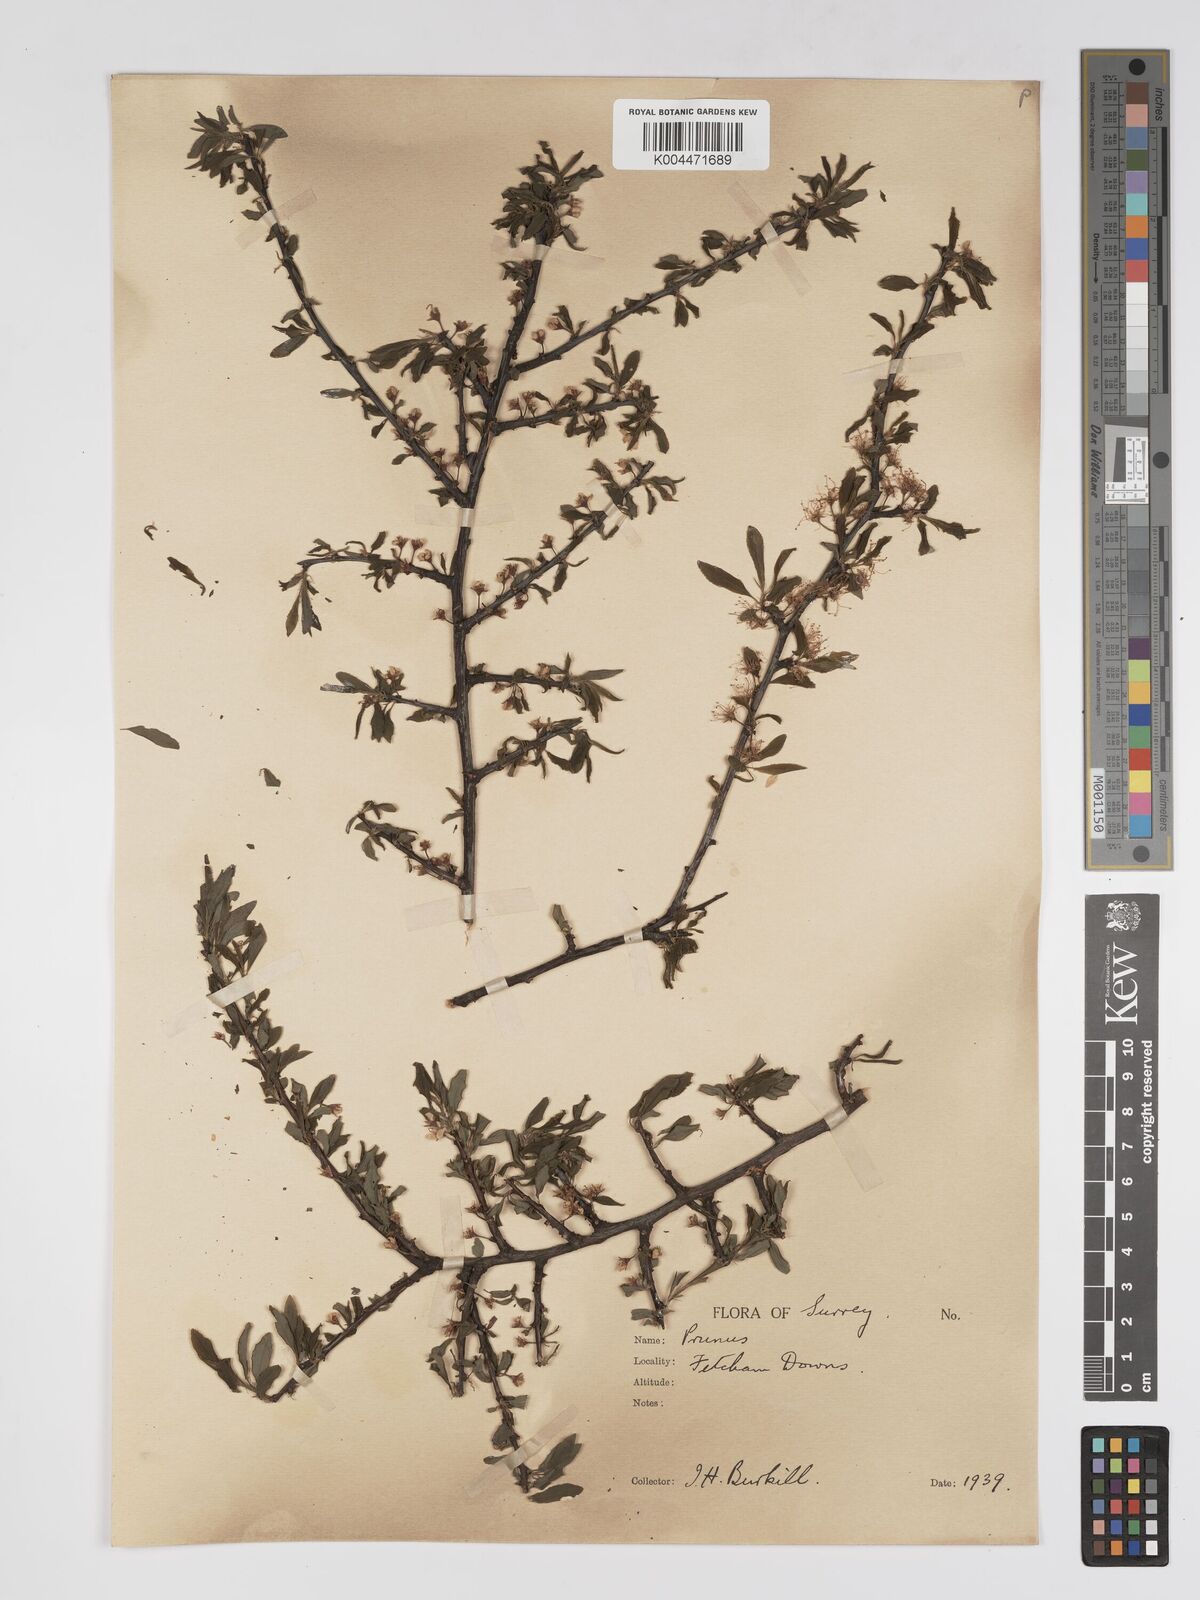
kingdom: Plantae
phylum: Tracheophyta
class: Magnoliopsida
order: Rosales
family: Rosaceae
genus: Prunus
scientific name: Prunus
